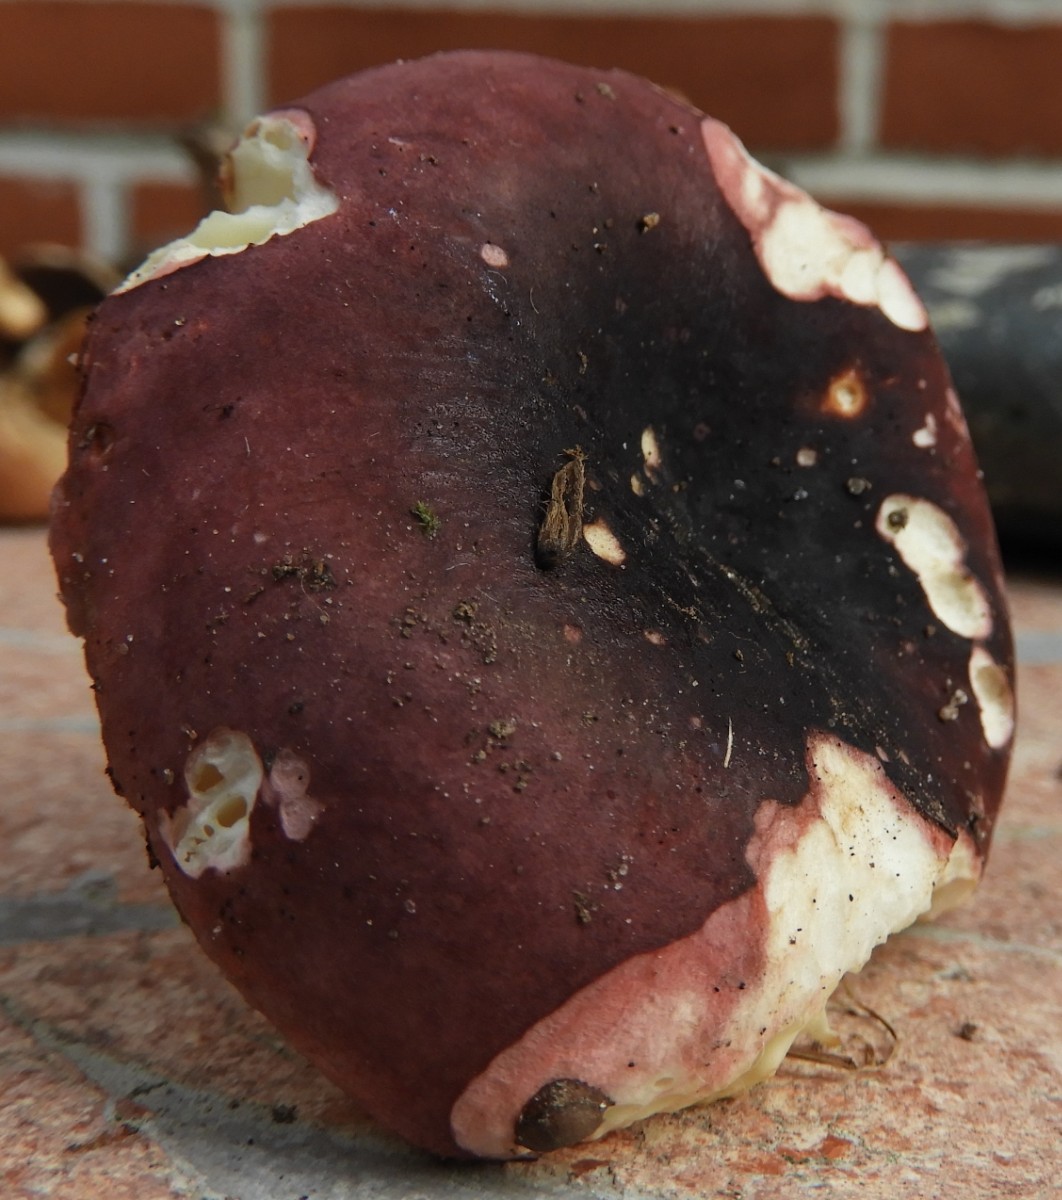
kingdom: Fungi
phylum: Basidiomycota
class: Agaricomycetes
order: Russulales
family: Russulaceae
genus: Russula
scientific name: Russula xerampelina
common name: hummer-skørhat
